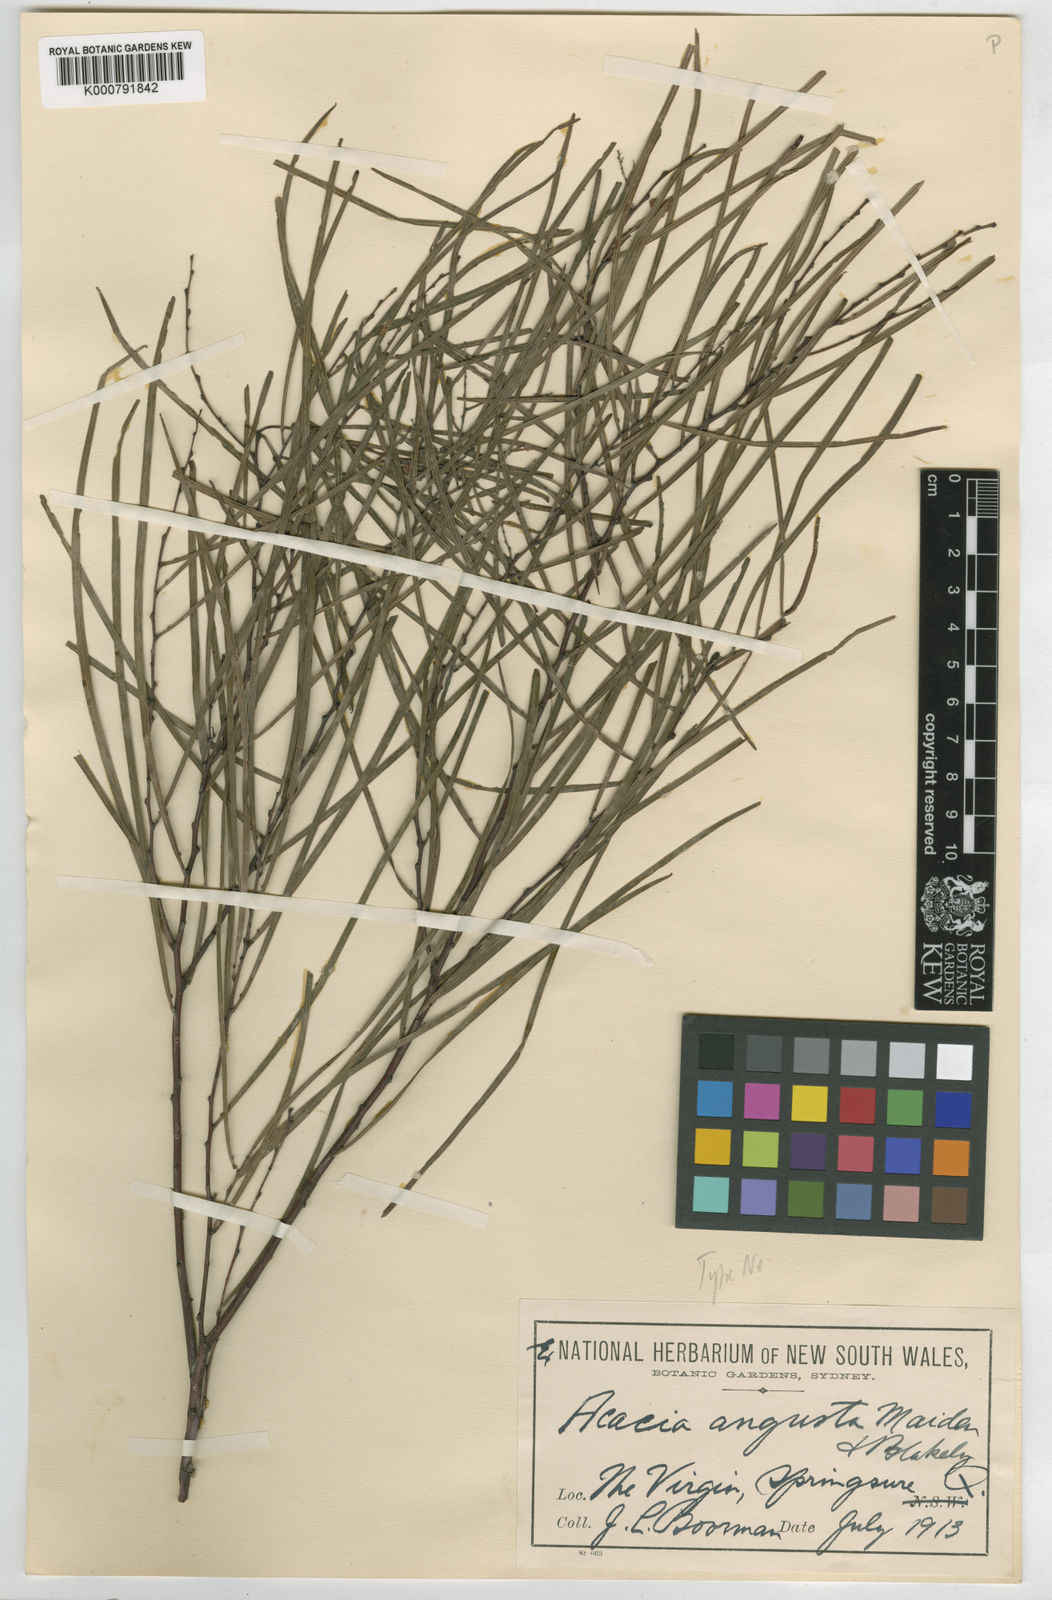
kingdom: Plantae
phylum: Tracheophyta
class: Magnoliopsida
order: Fabales
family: Fabaceae
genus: Acacia
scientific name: Acacia angusta
